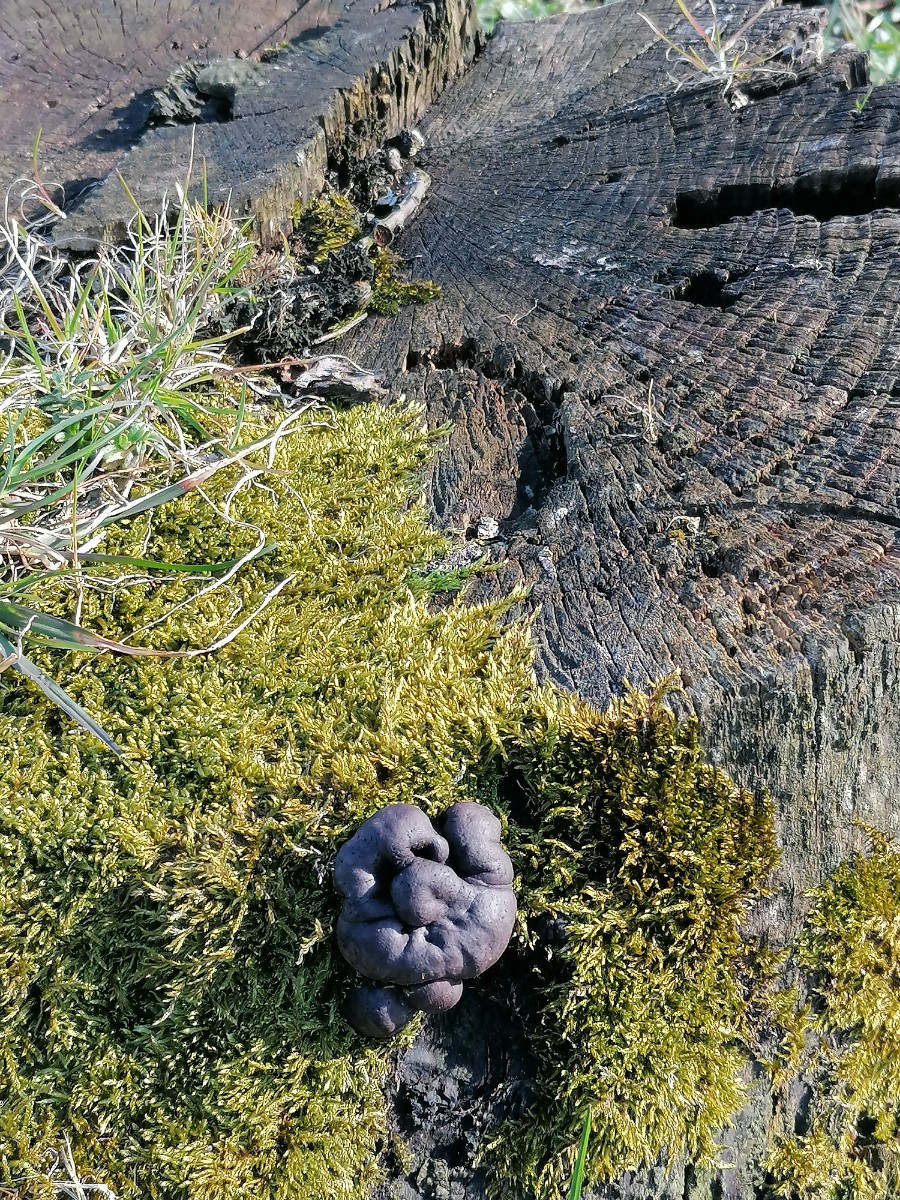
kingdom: Fungi
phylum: Ascomycota
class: Sordariomycetes
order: Xylariales
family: Hypoxylaceae
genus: Daldinia
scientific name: Daldinia concentrica
